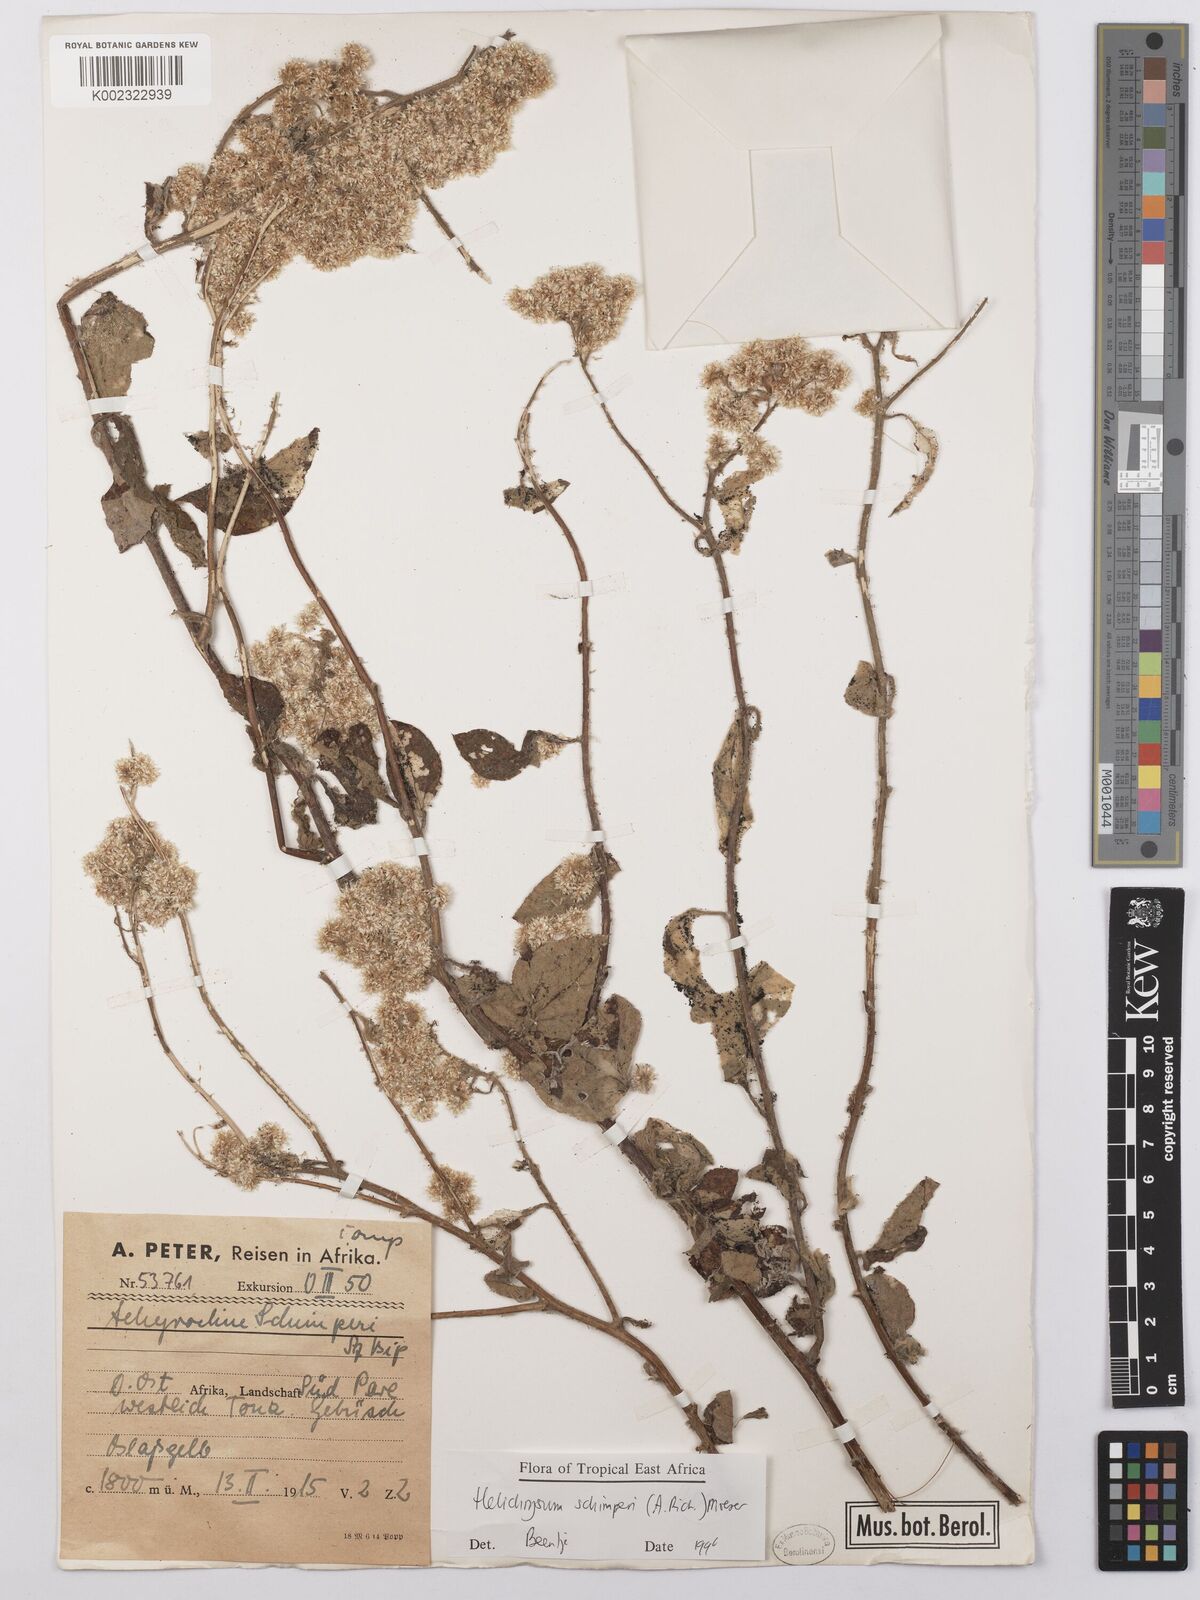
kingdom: Plantae
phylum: Tracheophyta
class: Magnoliopsida
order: Asterales
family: Asteraceae
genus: Helichrysum
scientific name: Helichrysum schimperi
